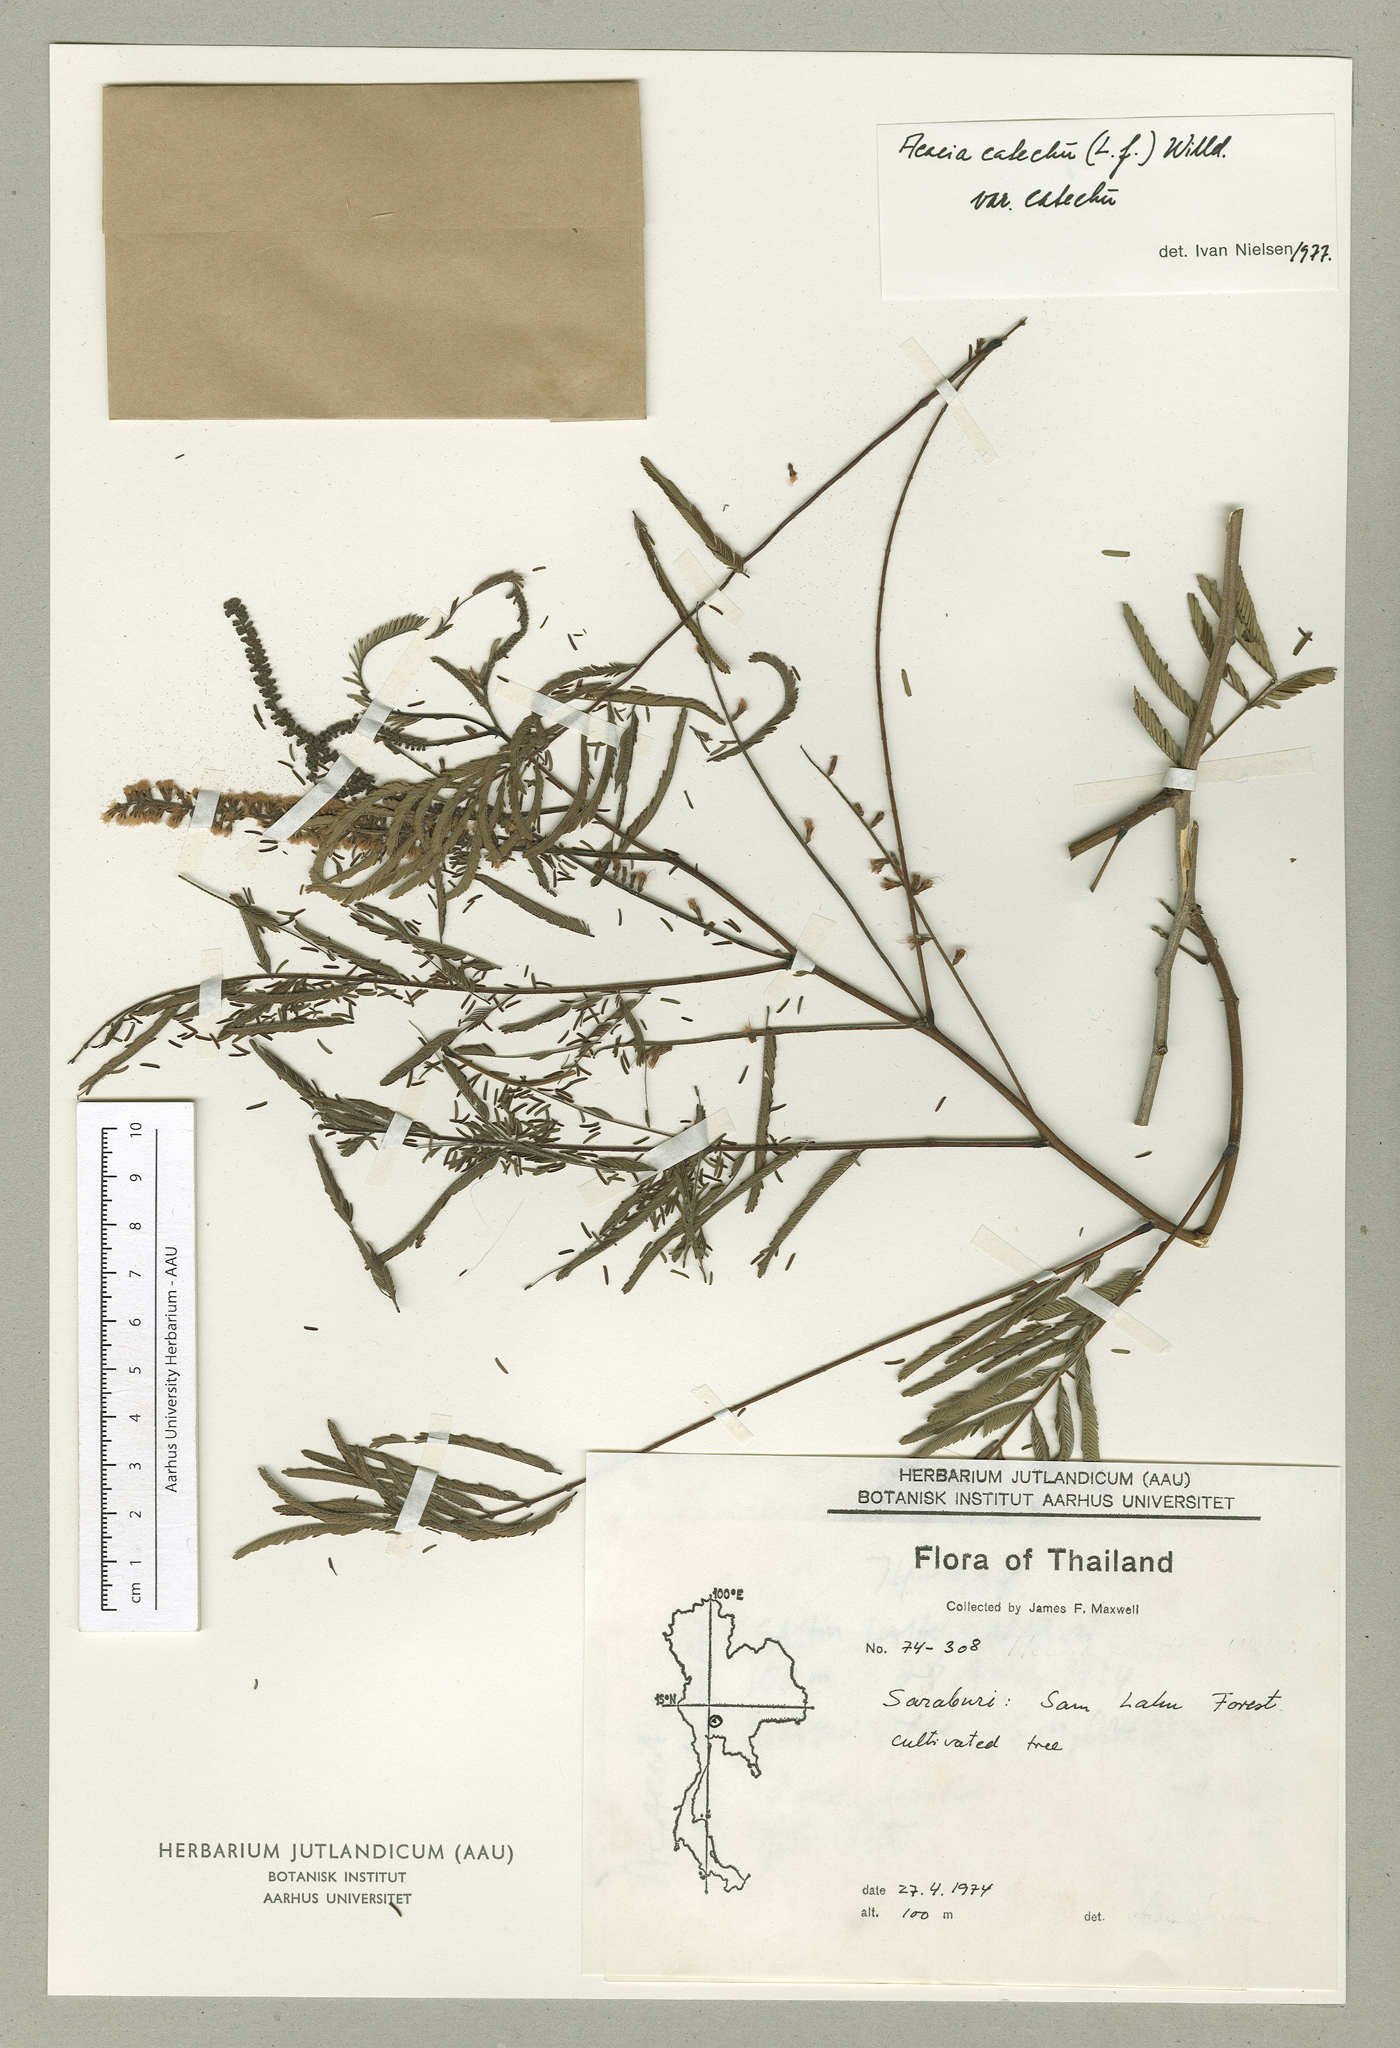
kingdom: Plantae
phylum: Tracheophyta
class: Magnoliopsida
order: Fabales
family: Fabaceae
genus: Senegalia
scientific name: Senegalia catechu
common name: Black cutch
